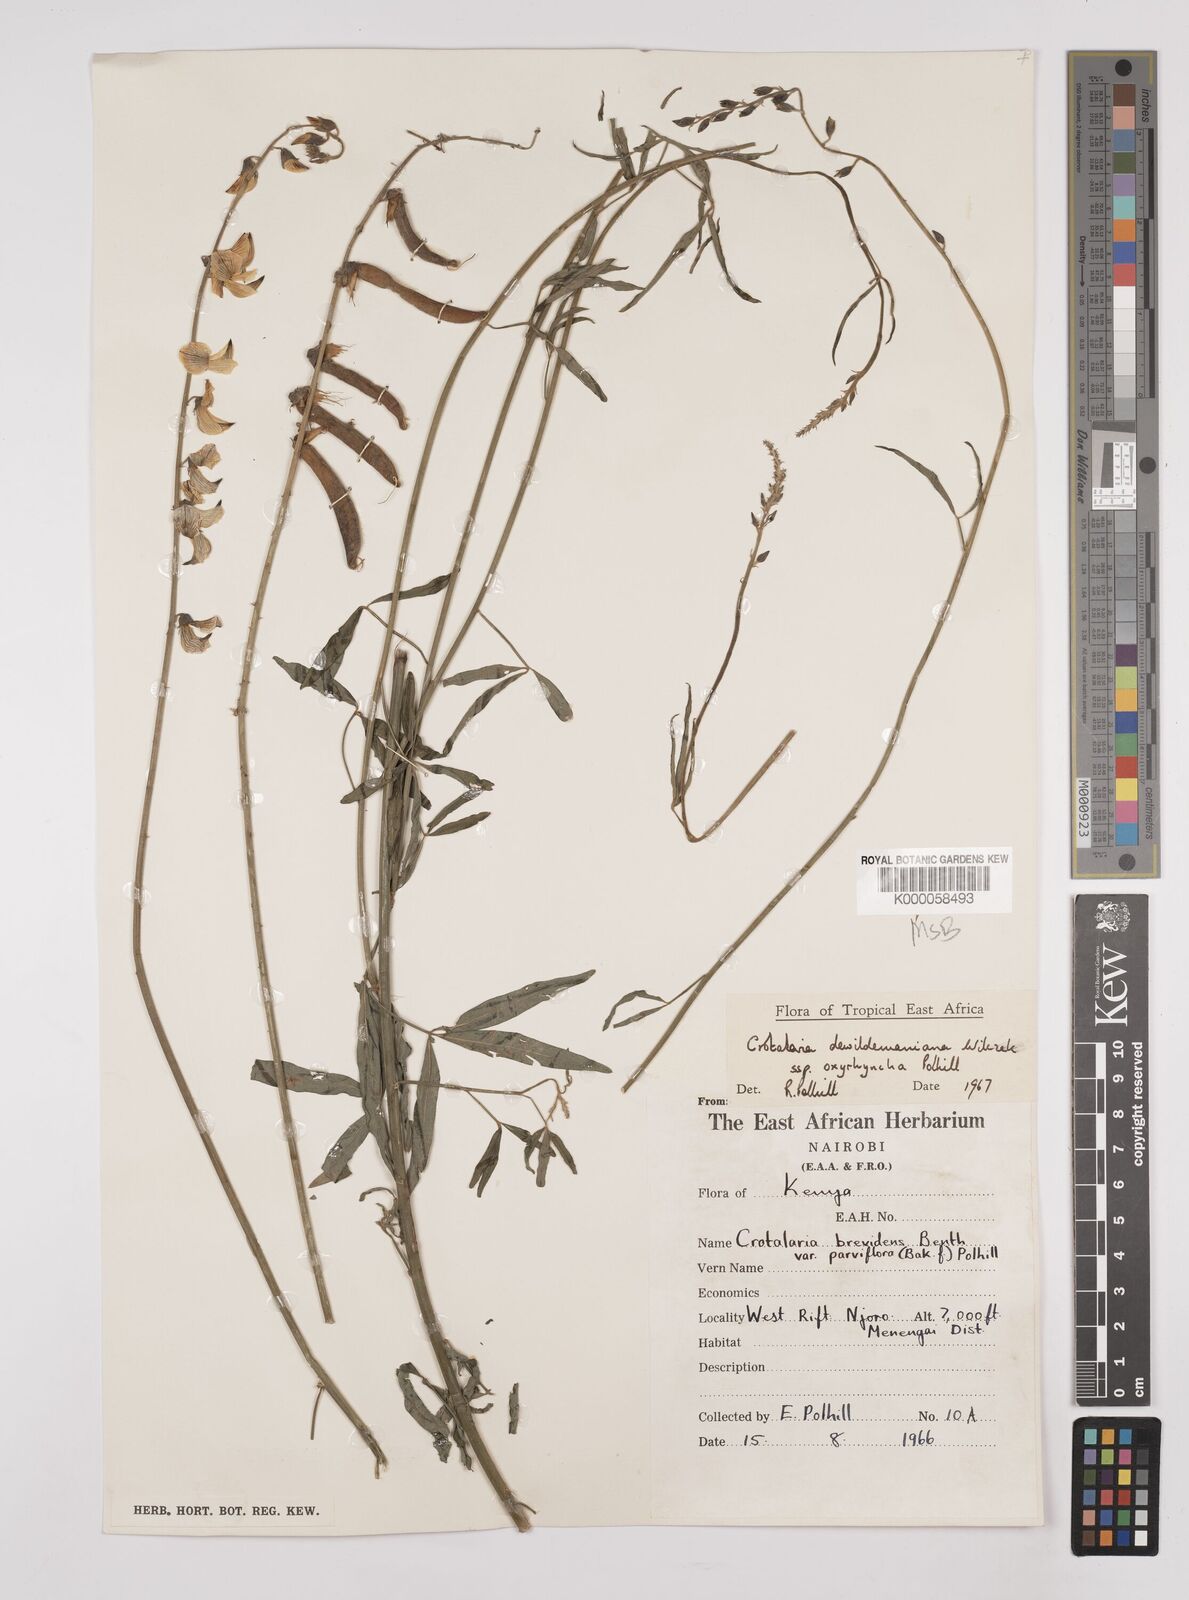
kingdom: Plantae
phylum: Tracheophyta
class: Magnoliopsida
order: Fabales
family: Fabaceae
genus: Crotalaria
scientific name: Crotalaria dewildemaniana
